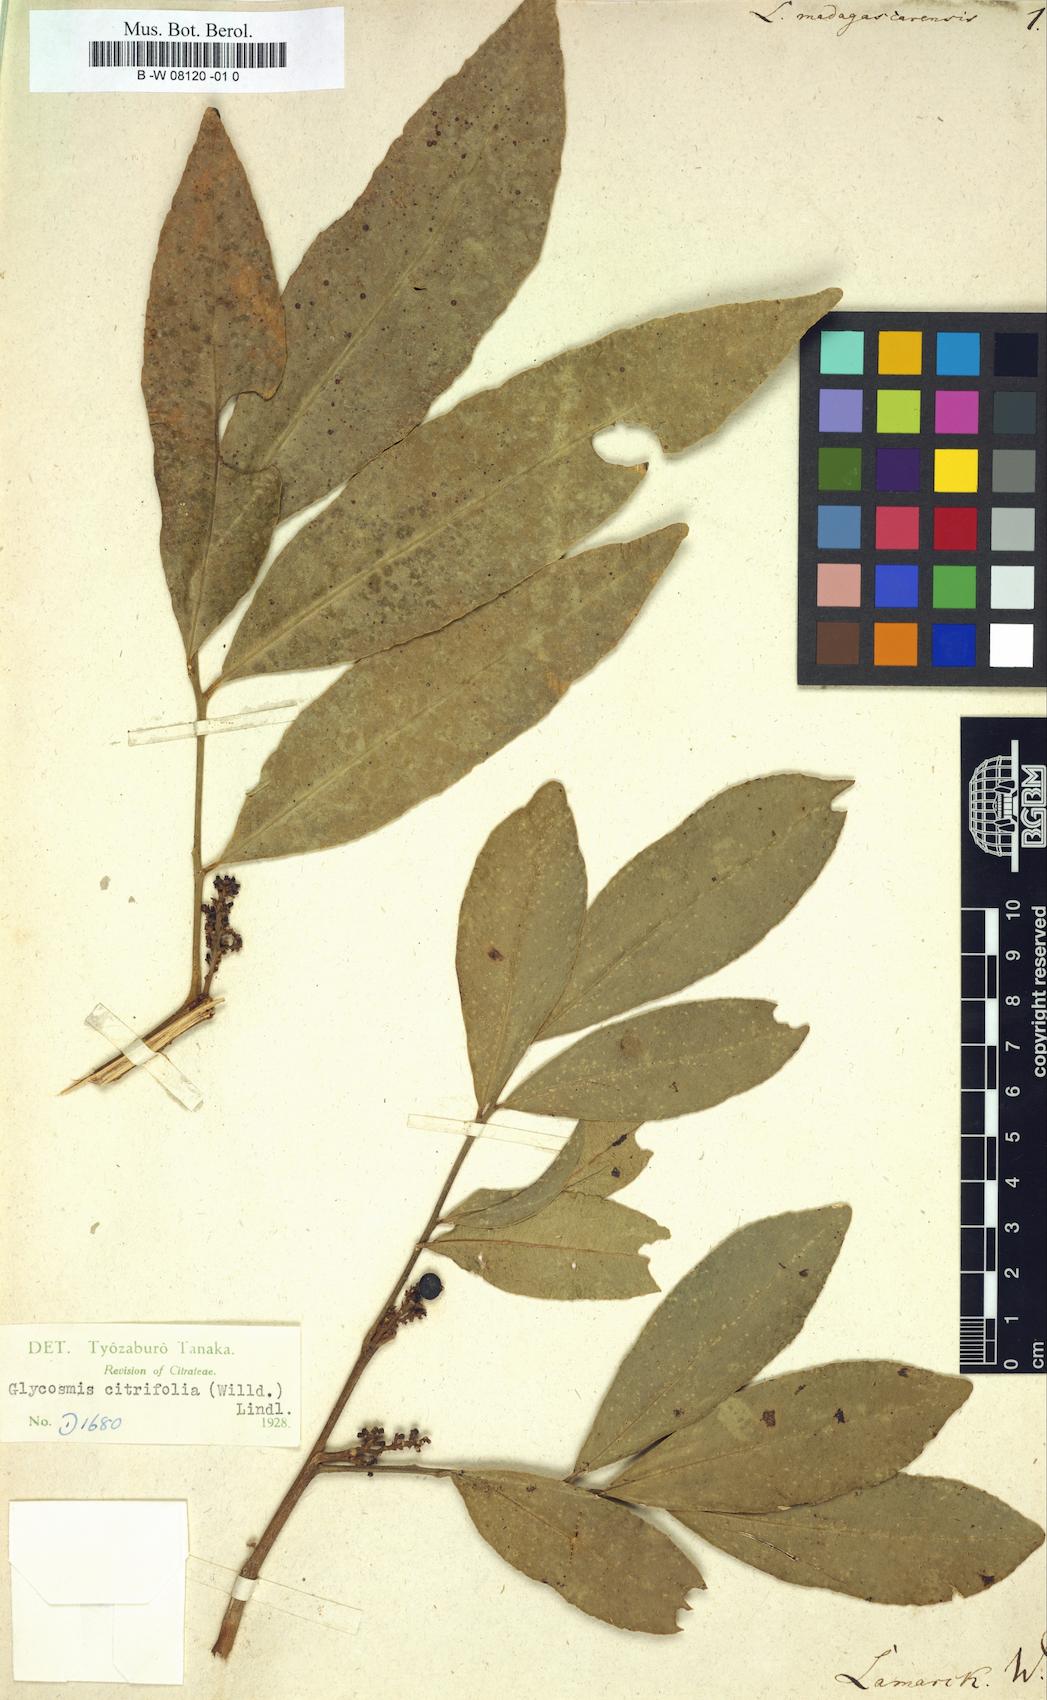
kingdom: Plantae
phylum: Tracheophyta
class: Magnoliopsida
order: Sapindales
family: Rutaceae
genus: Limonia
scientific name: Limonia
